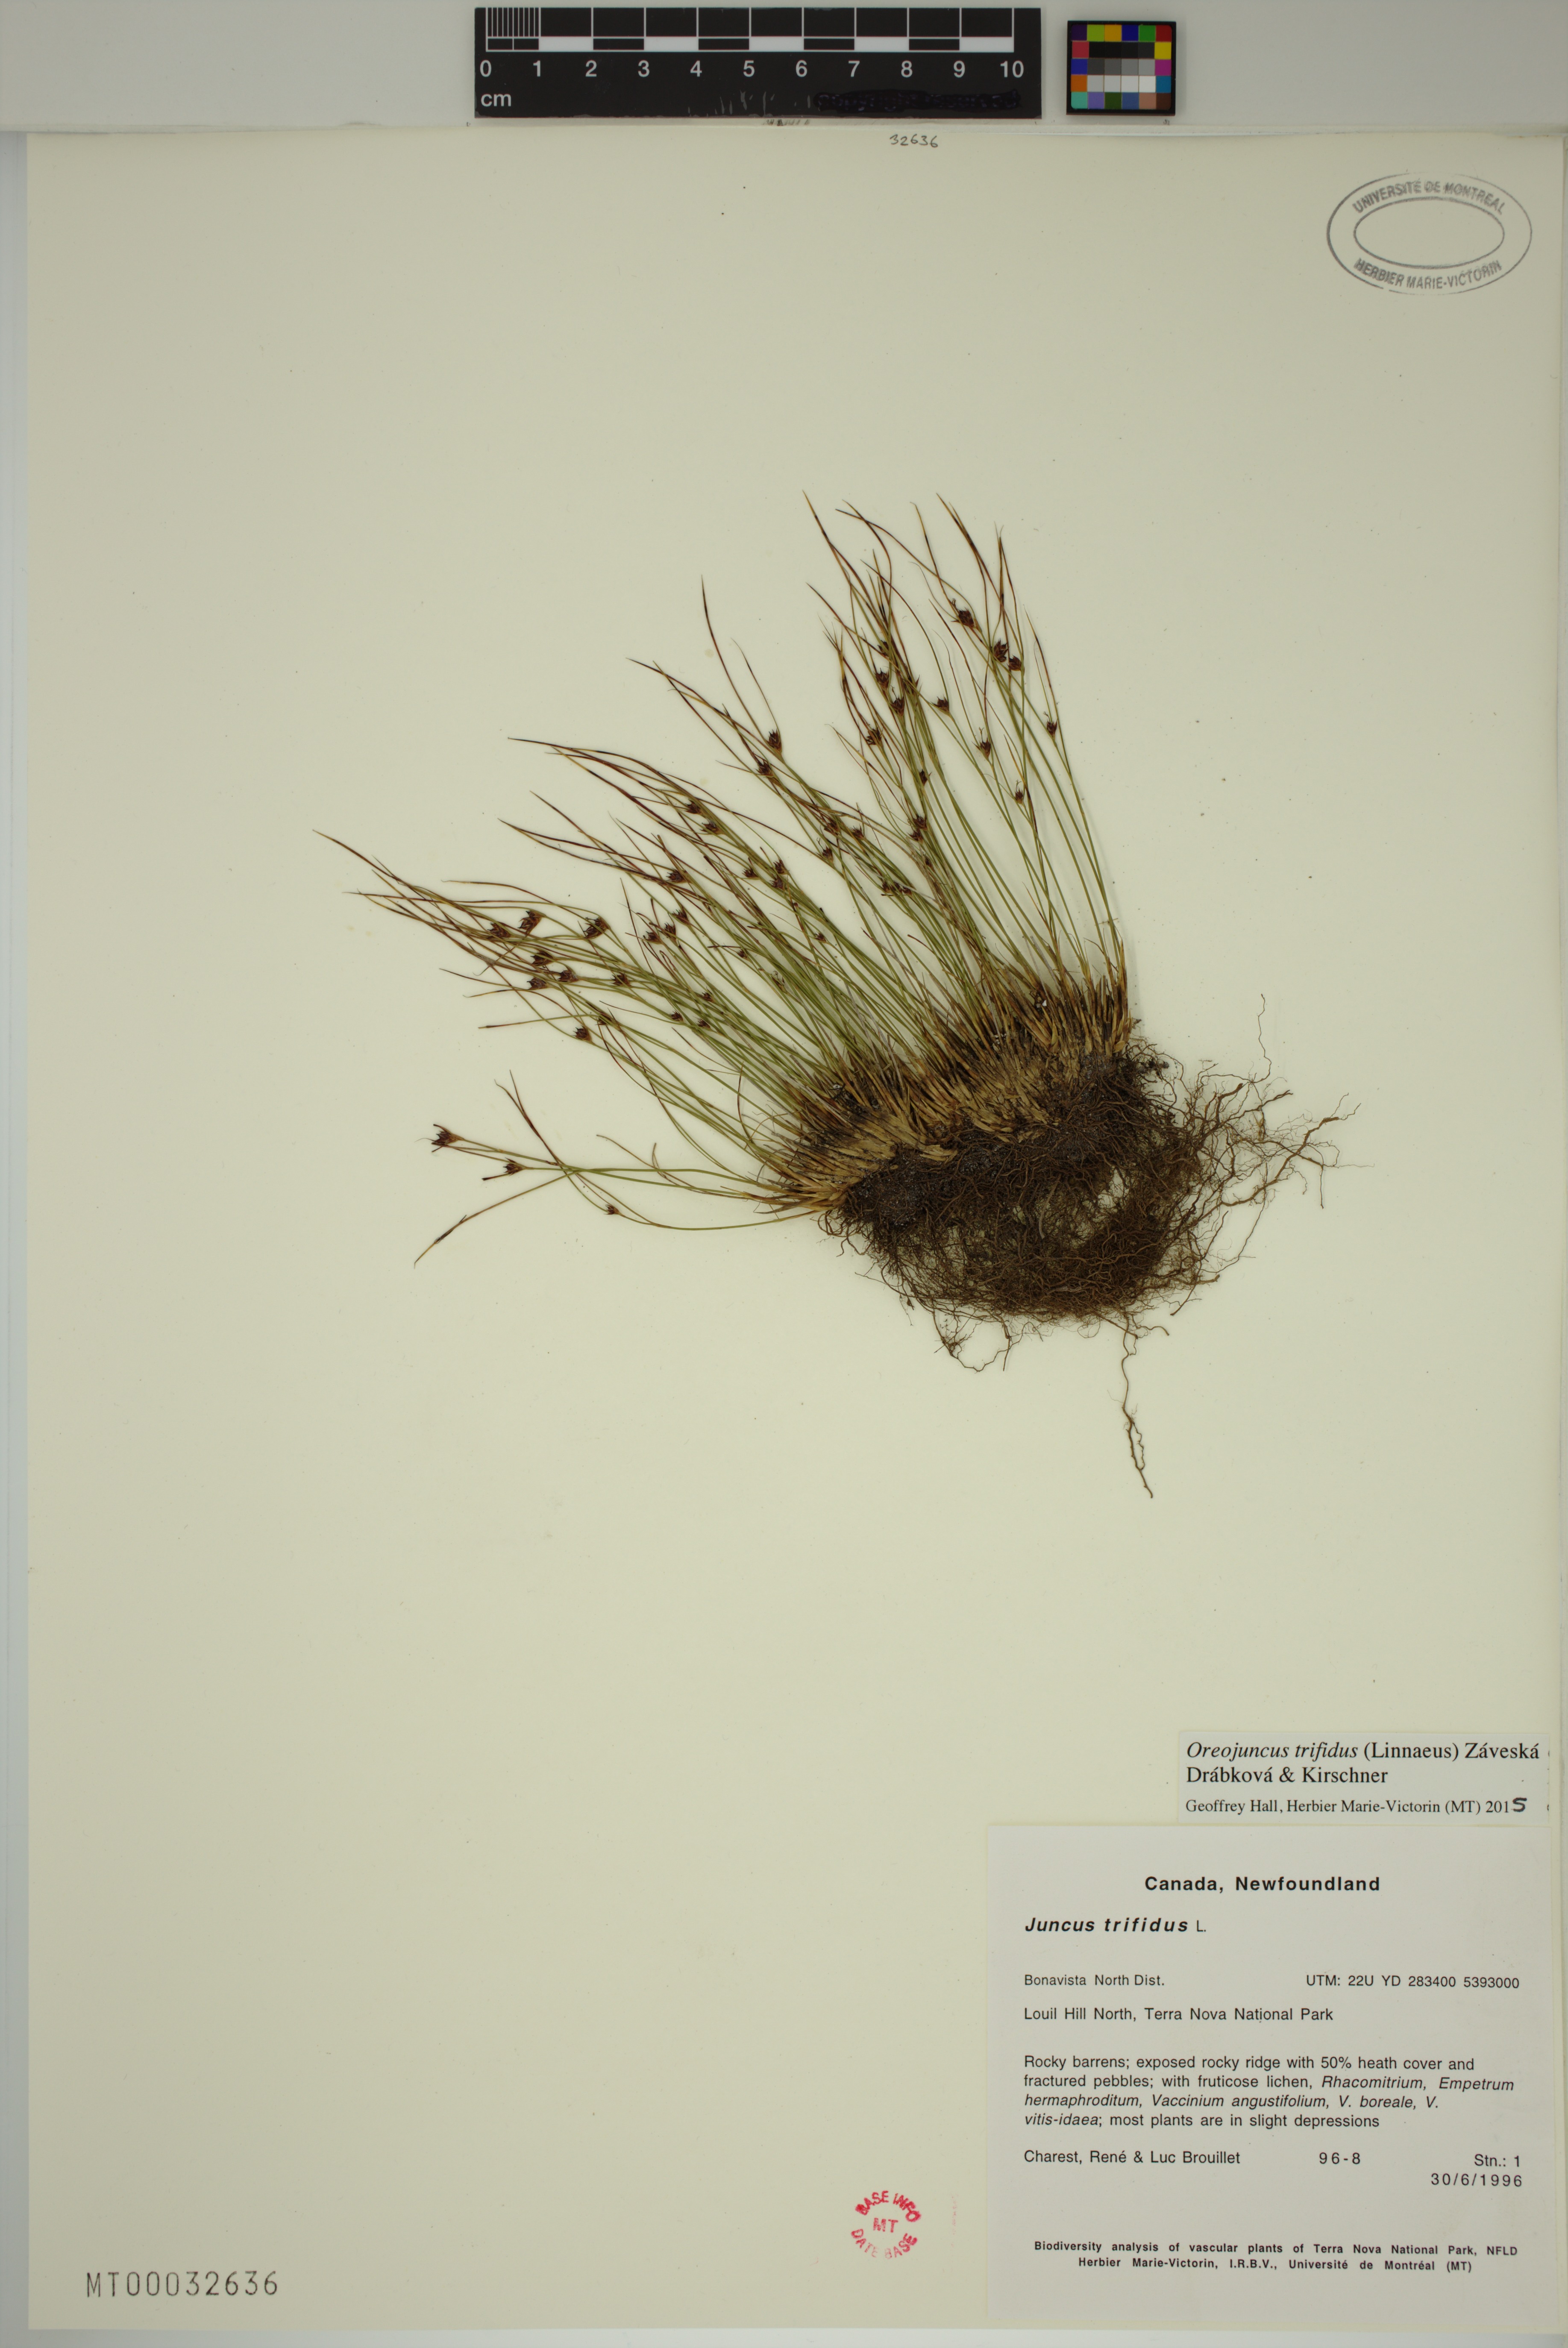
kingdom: Plantae
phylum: Tracheophyta
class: Liliopsida
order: Poales
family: Juncaceae
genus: Oreojuncus
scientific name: Oreojuncus trifidus
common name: Highland rush
